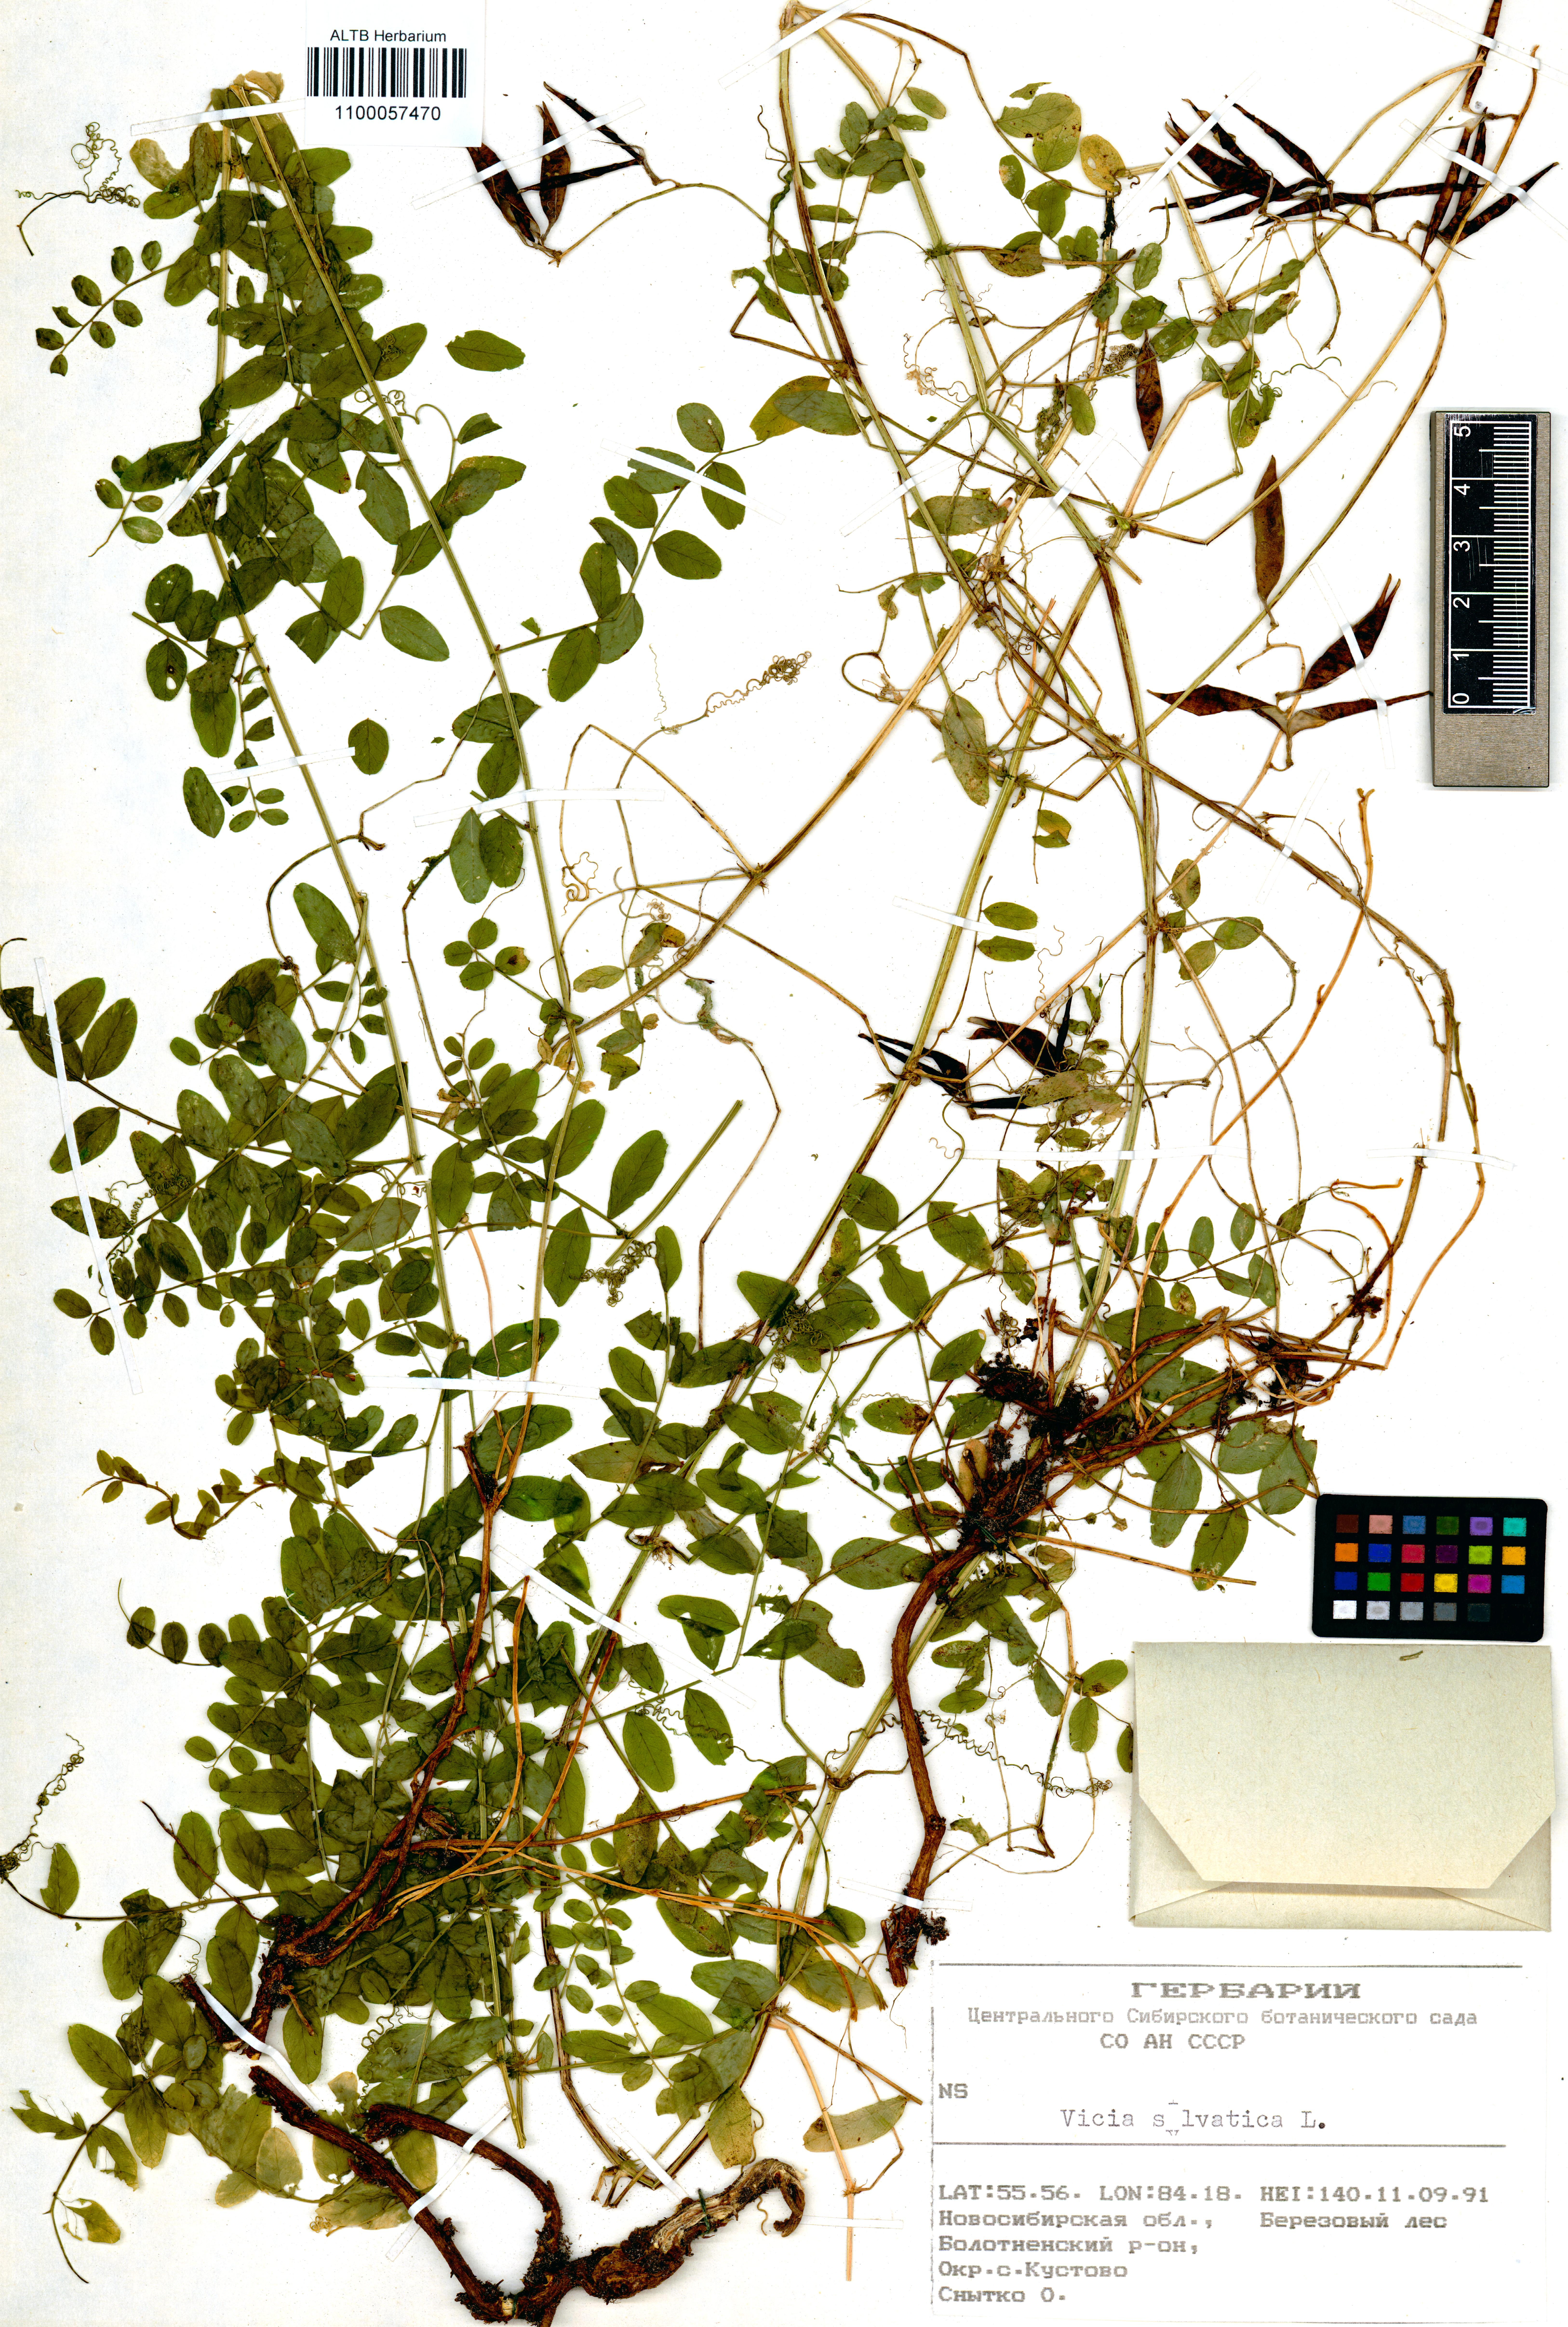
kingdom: Plantae
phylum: Tracheophyta
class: Magnoliopsida
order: Fabales
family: Fabaceae
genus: Vicia
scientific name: Vicia sylvatica
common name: Wood vetch
